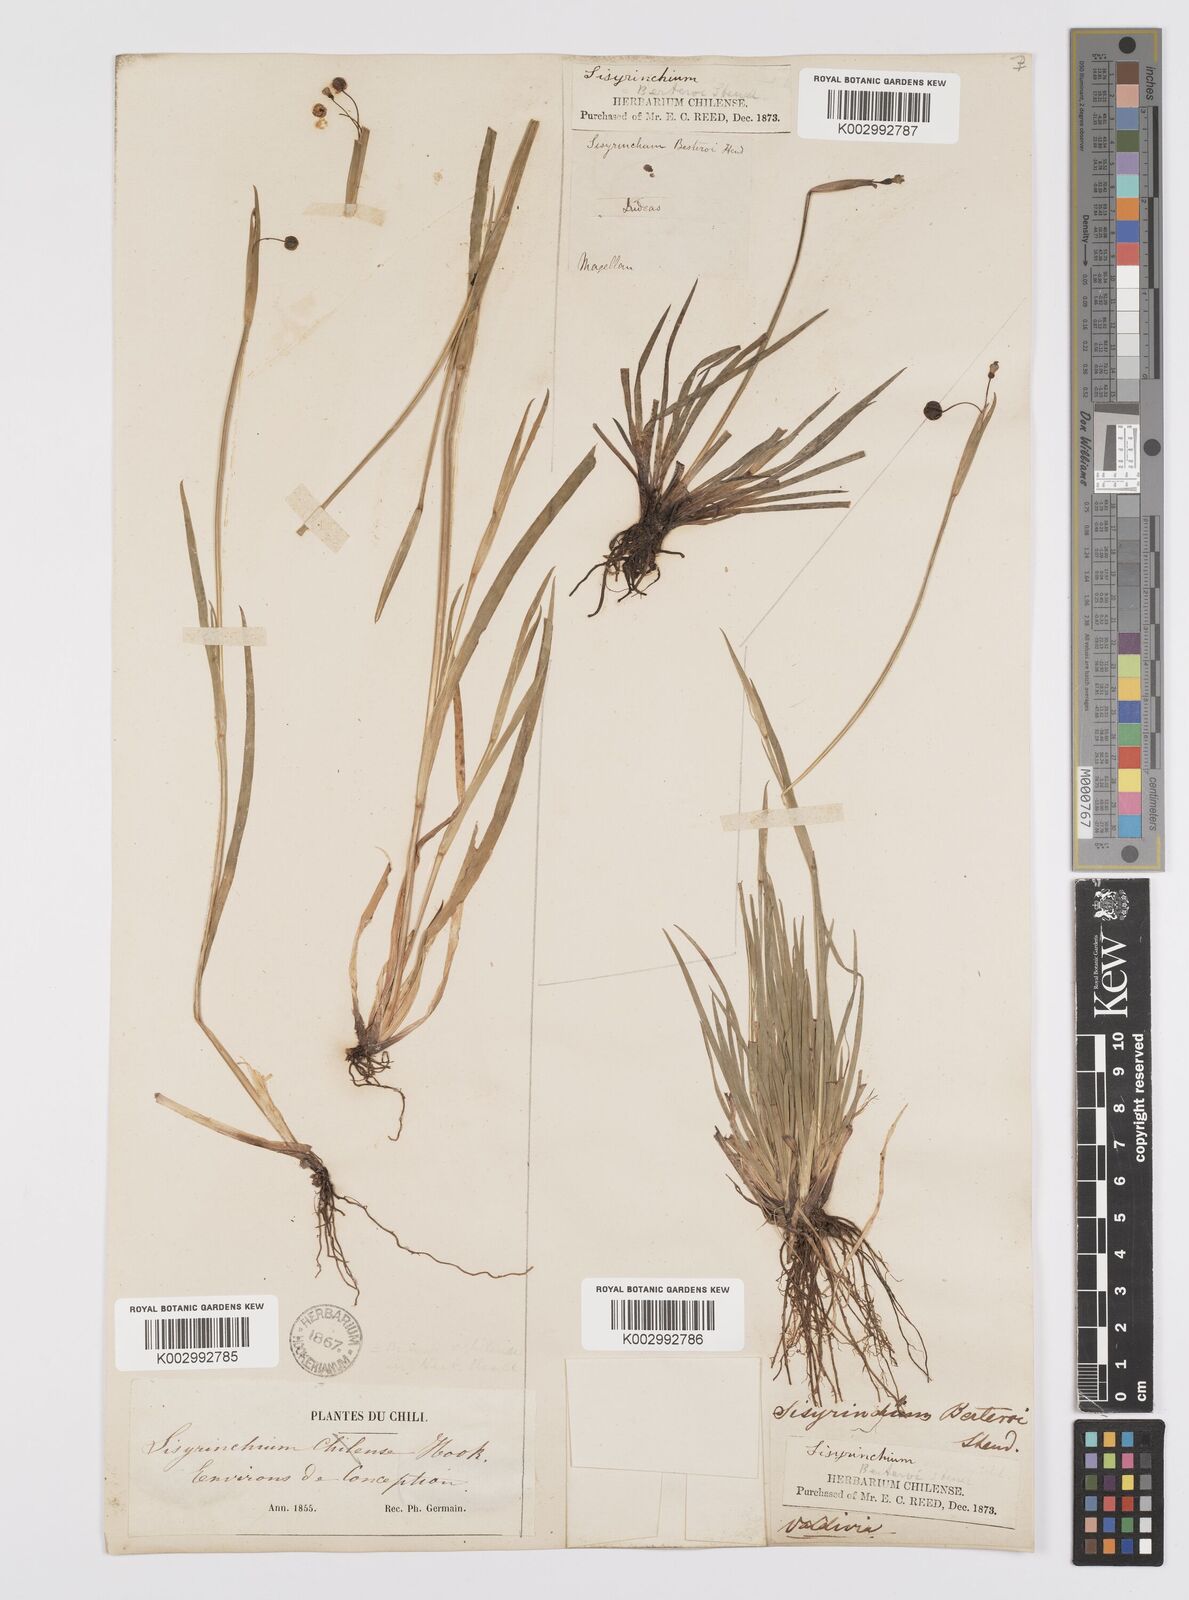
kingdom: Plantae
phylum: Tracheophyta
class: Liliopsida
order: Asparagales
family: Iridaceae
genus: Sisyrinchium
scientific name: Sisyrinchium scabrum
